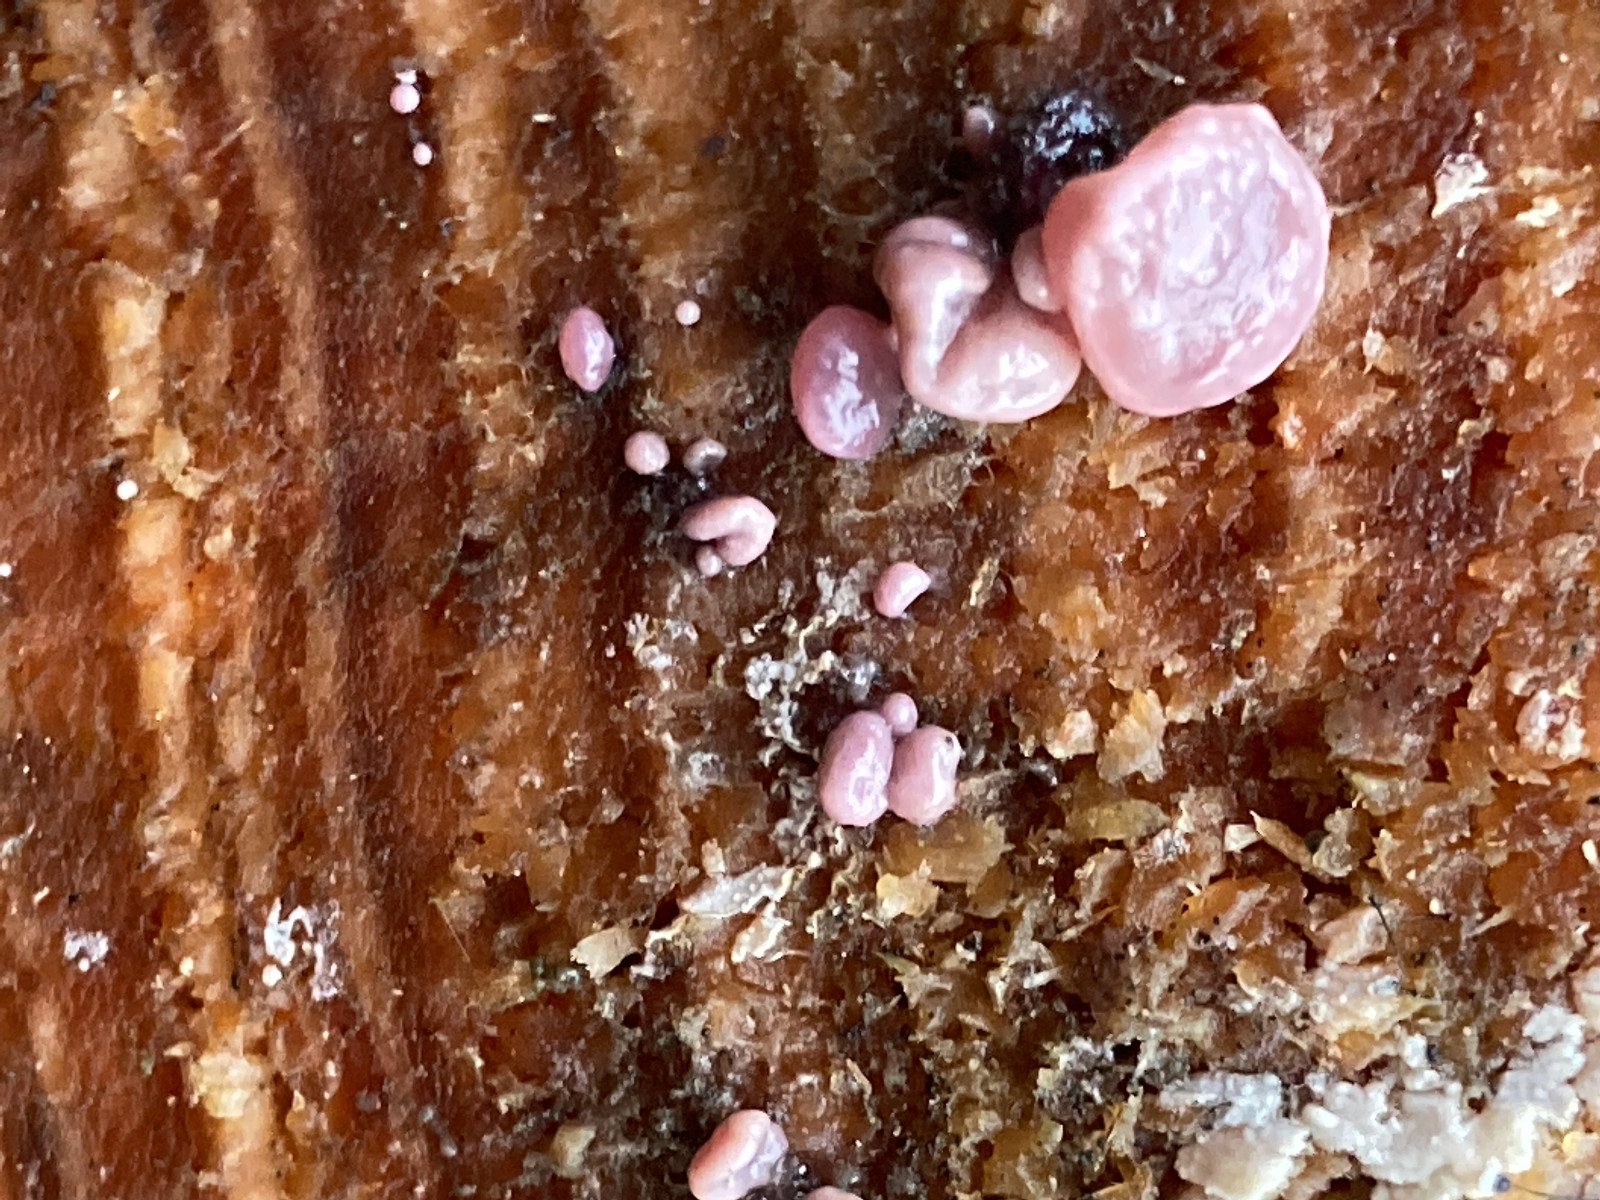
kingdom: Fungi
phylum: Ascomycota
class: Leotiomycetes
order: Helotiales
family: Gelatinodiscaceae
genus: Ascocoryne
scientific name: Ascocoryne sarcoides
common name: rødlilla sejskive
